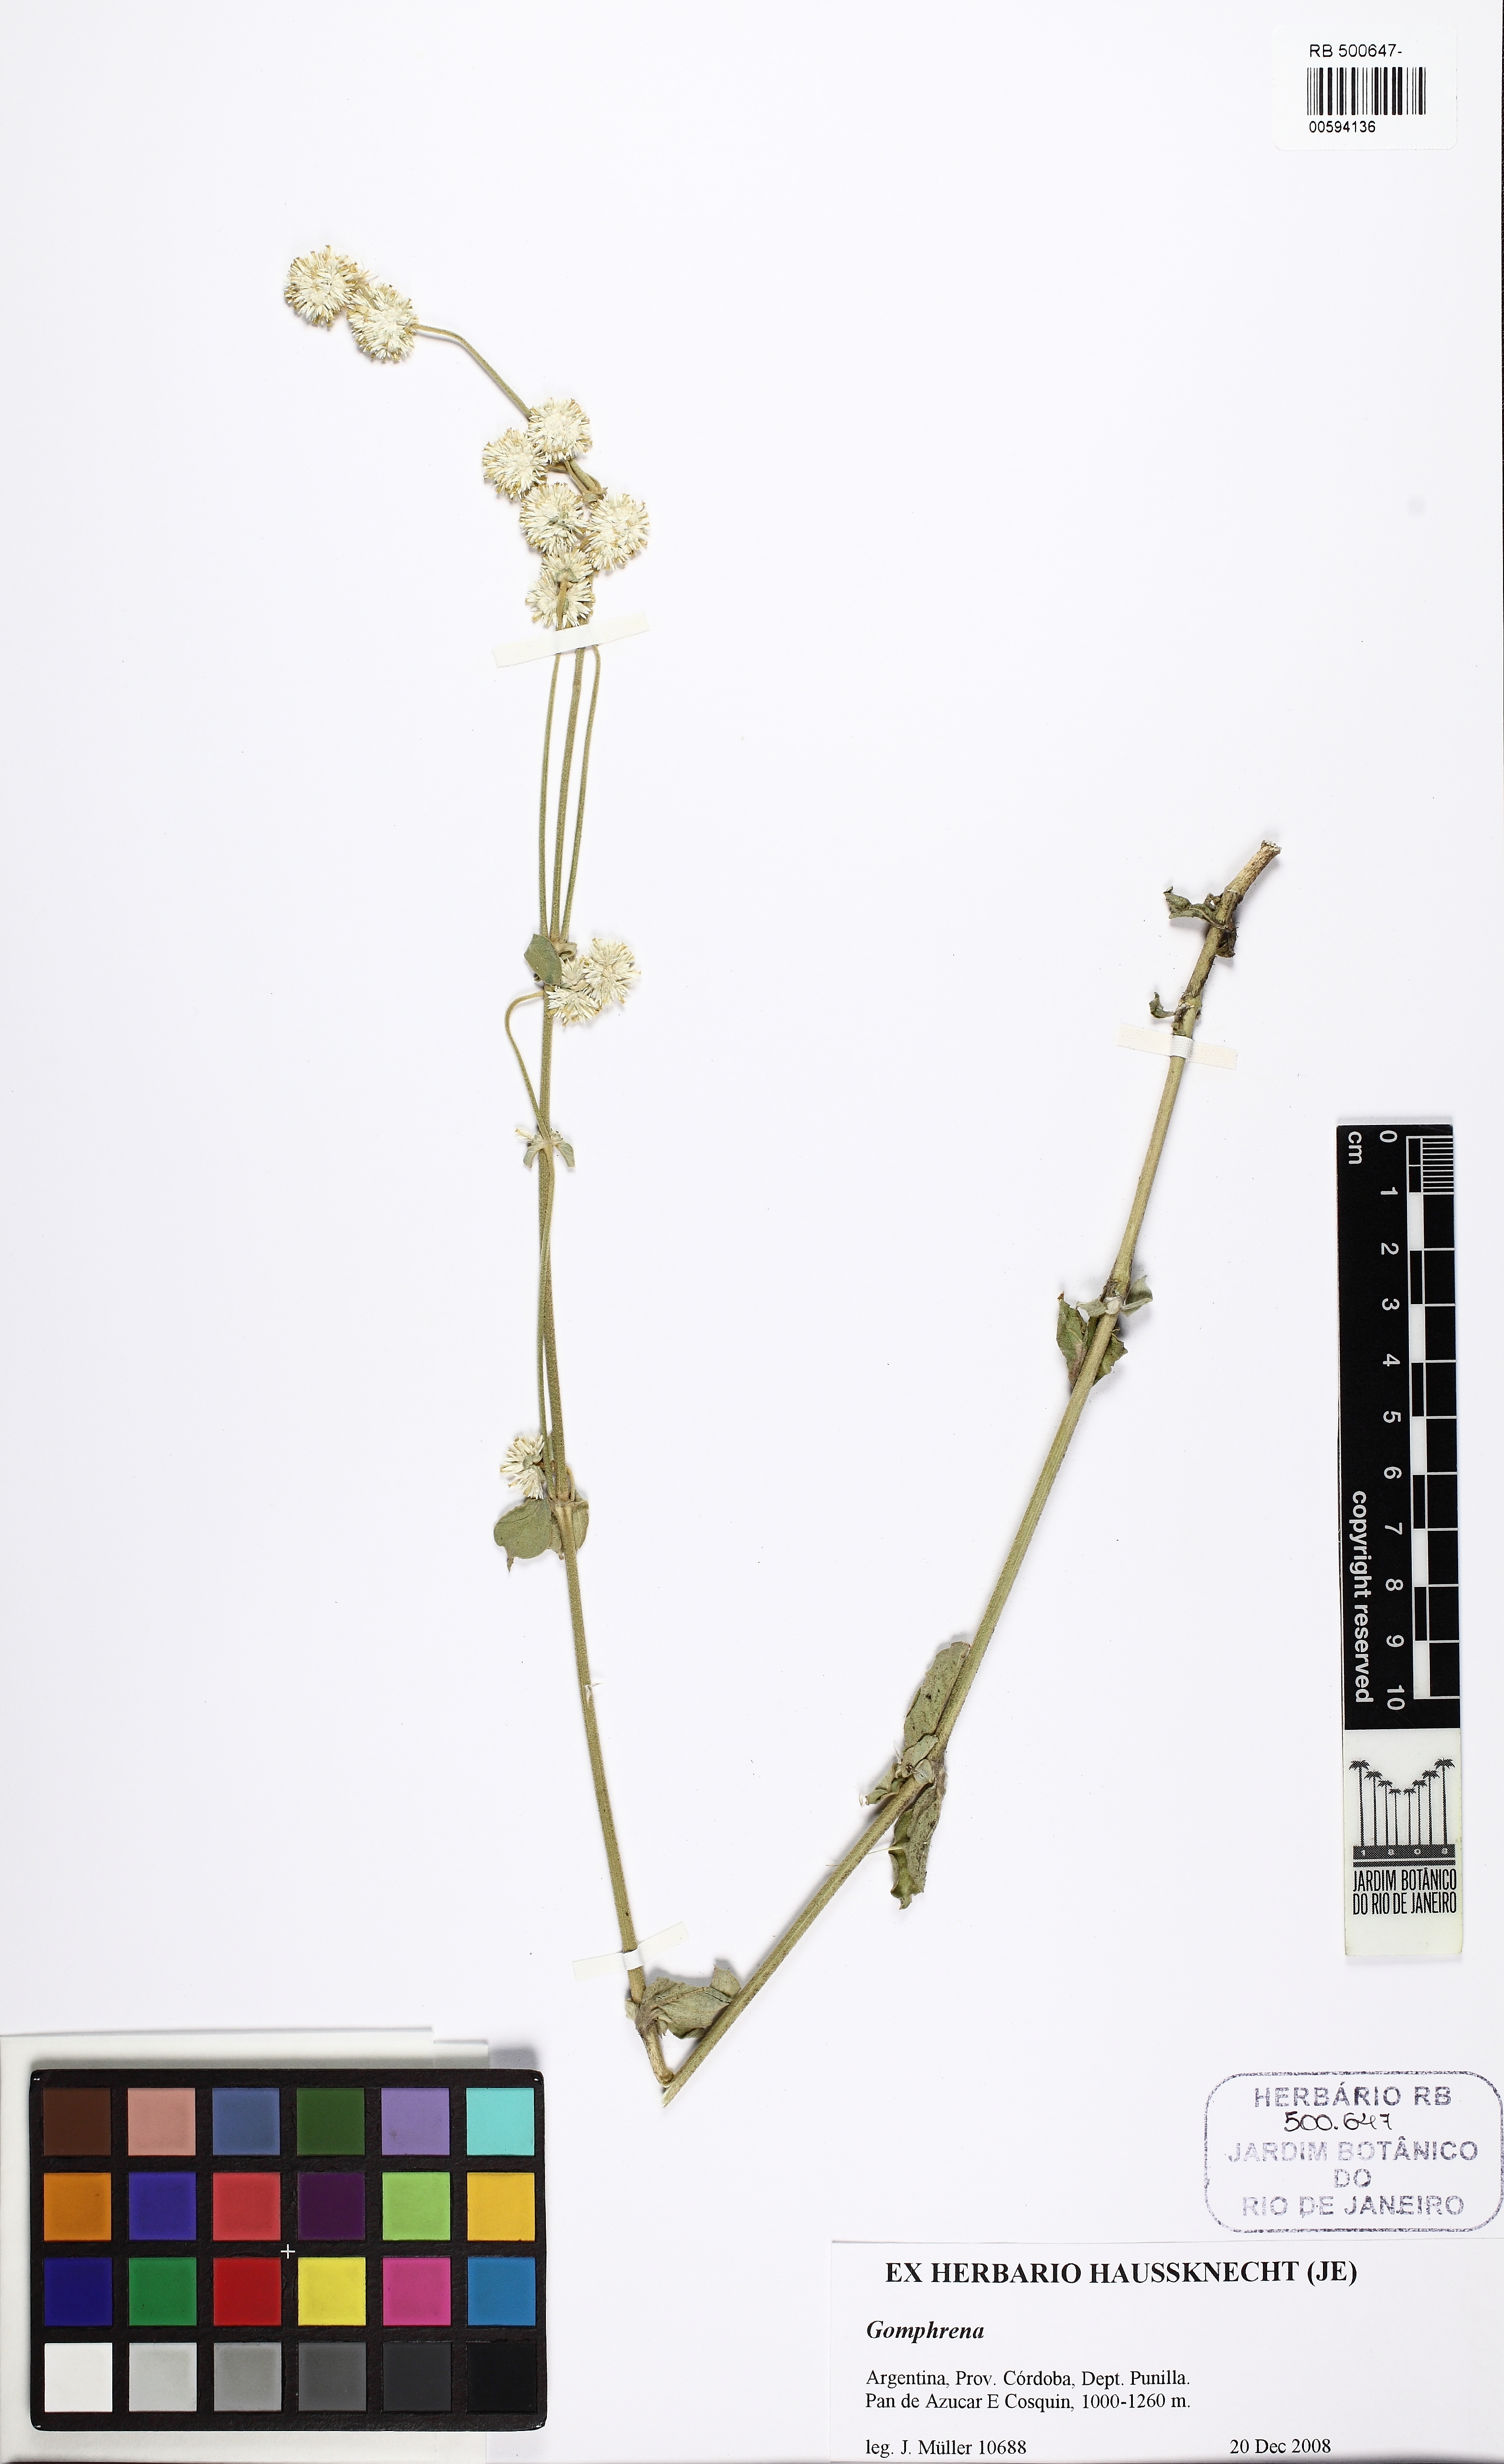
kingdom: Plantae
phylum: Tracheophyta
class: Magnoliopsida
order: Caryophyllales
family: Amaranthaceae
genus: Gomphrena
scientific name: Gomphrena
